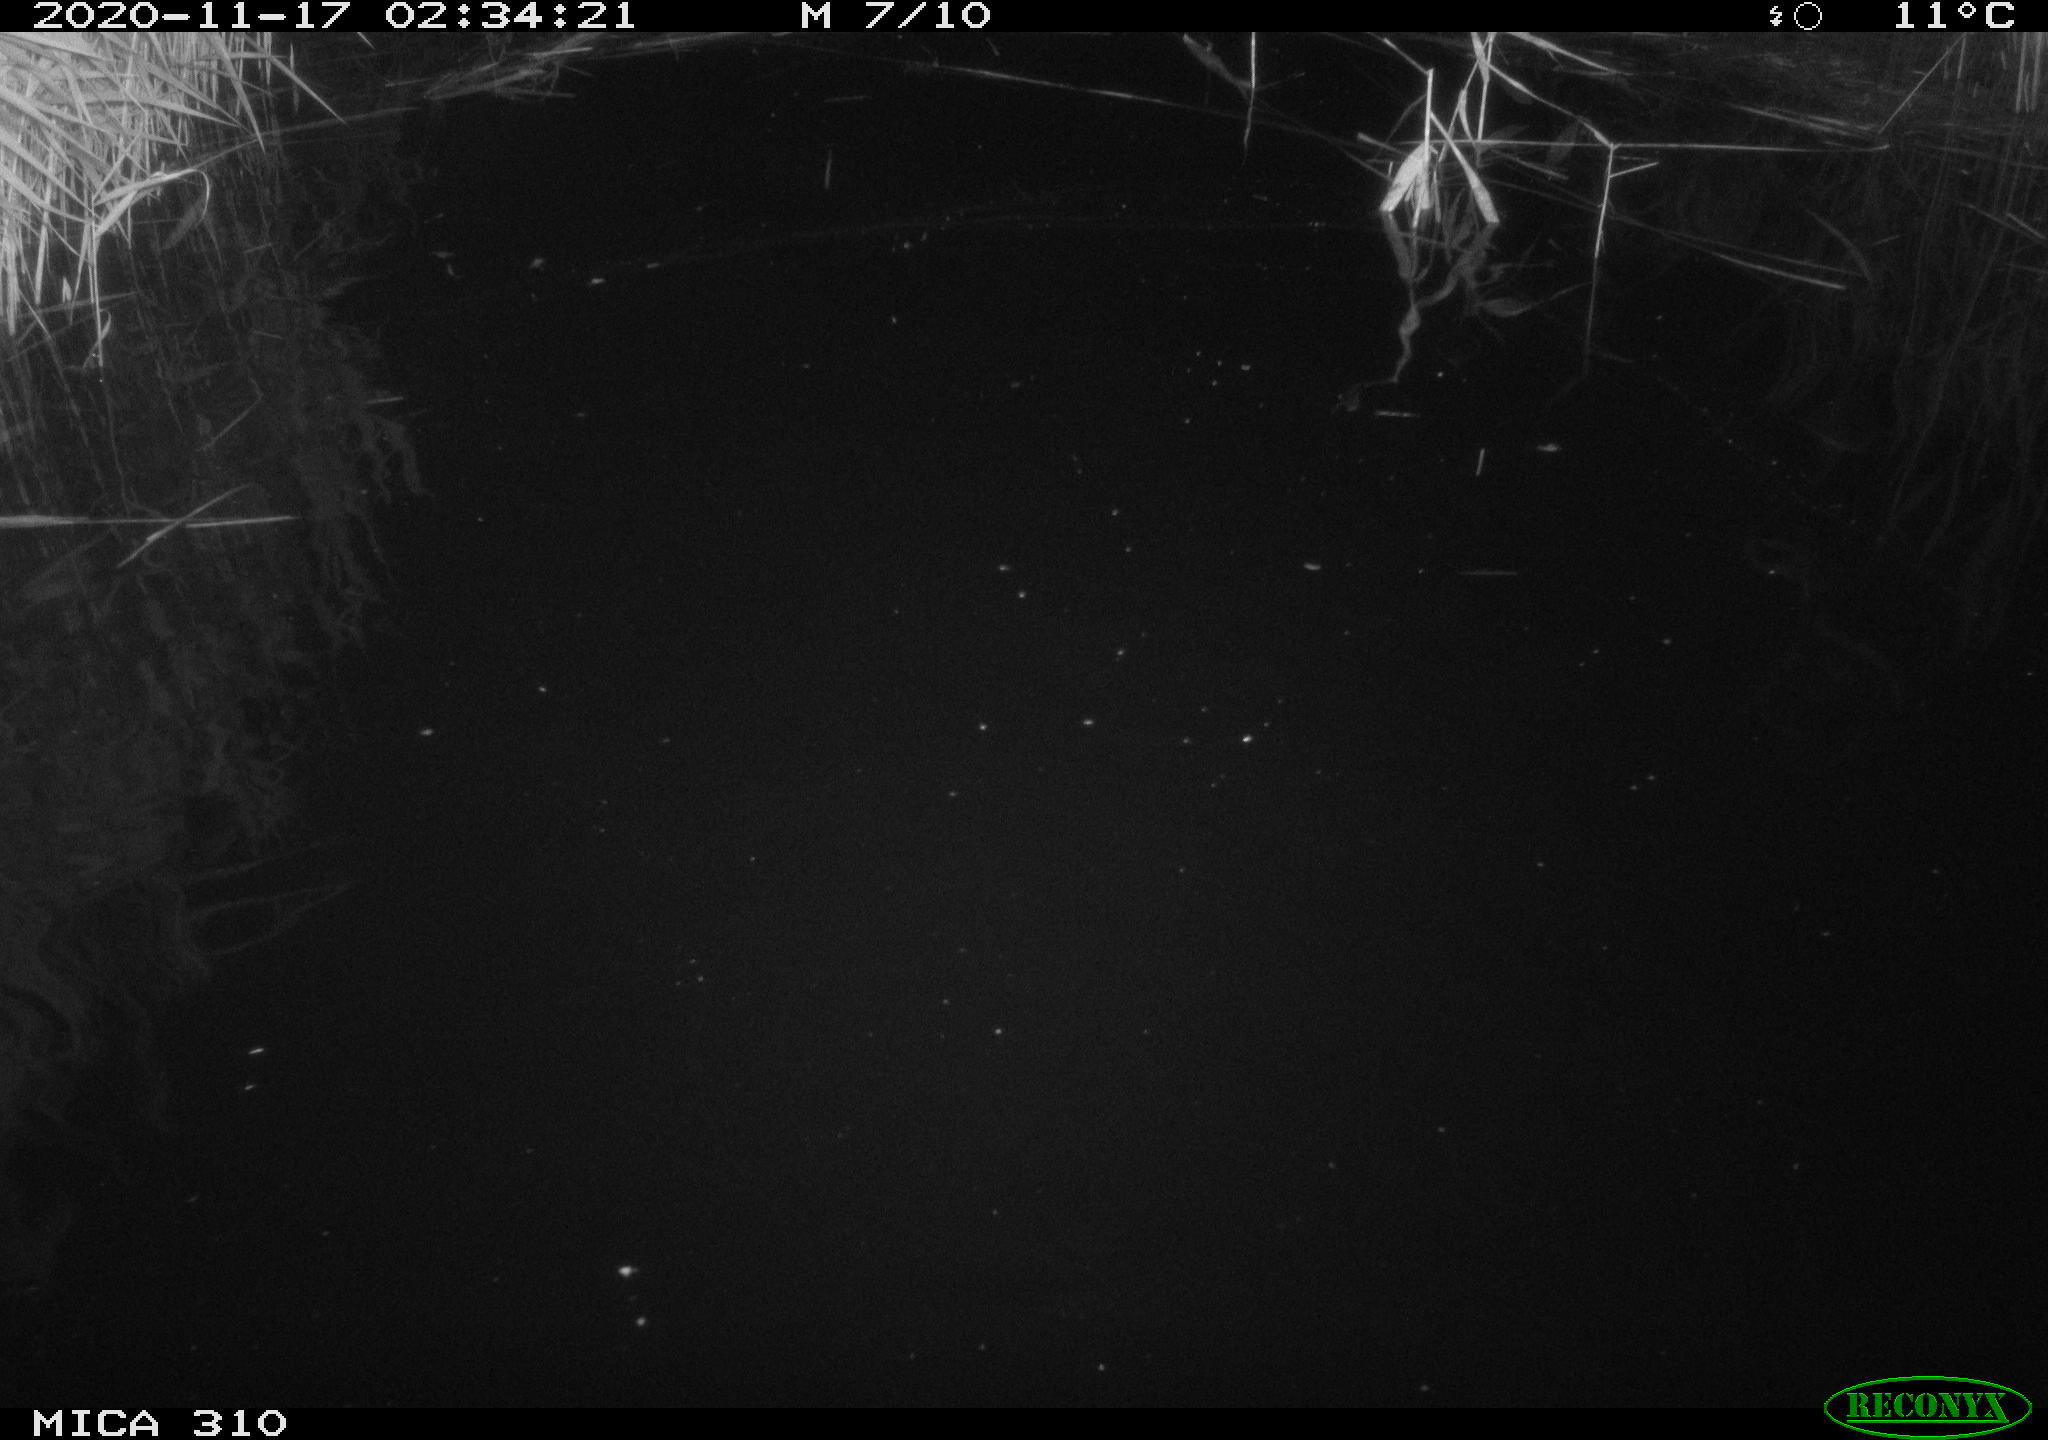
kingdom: Animalia
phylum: Chordata
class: Mammalia
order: Rodentia
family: Cricetidae
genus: Ondatra
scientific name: Ondatra zibethicus
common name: Muskrat
